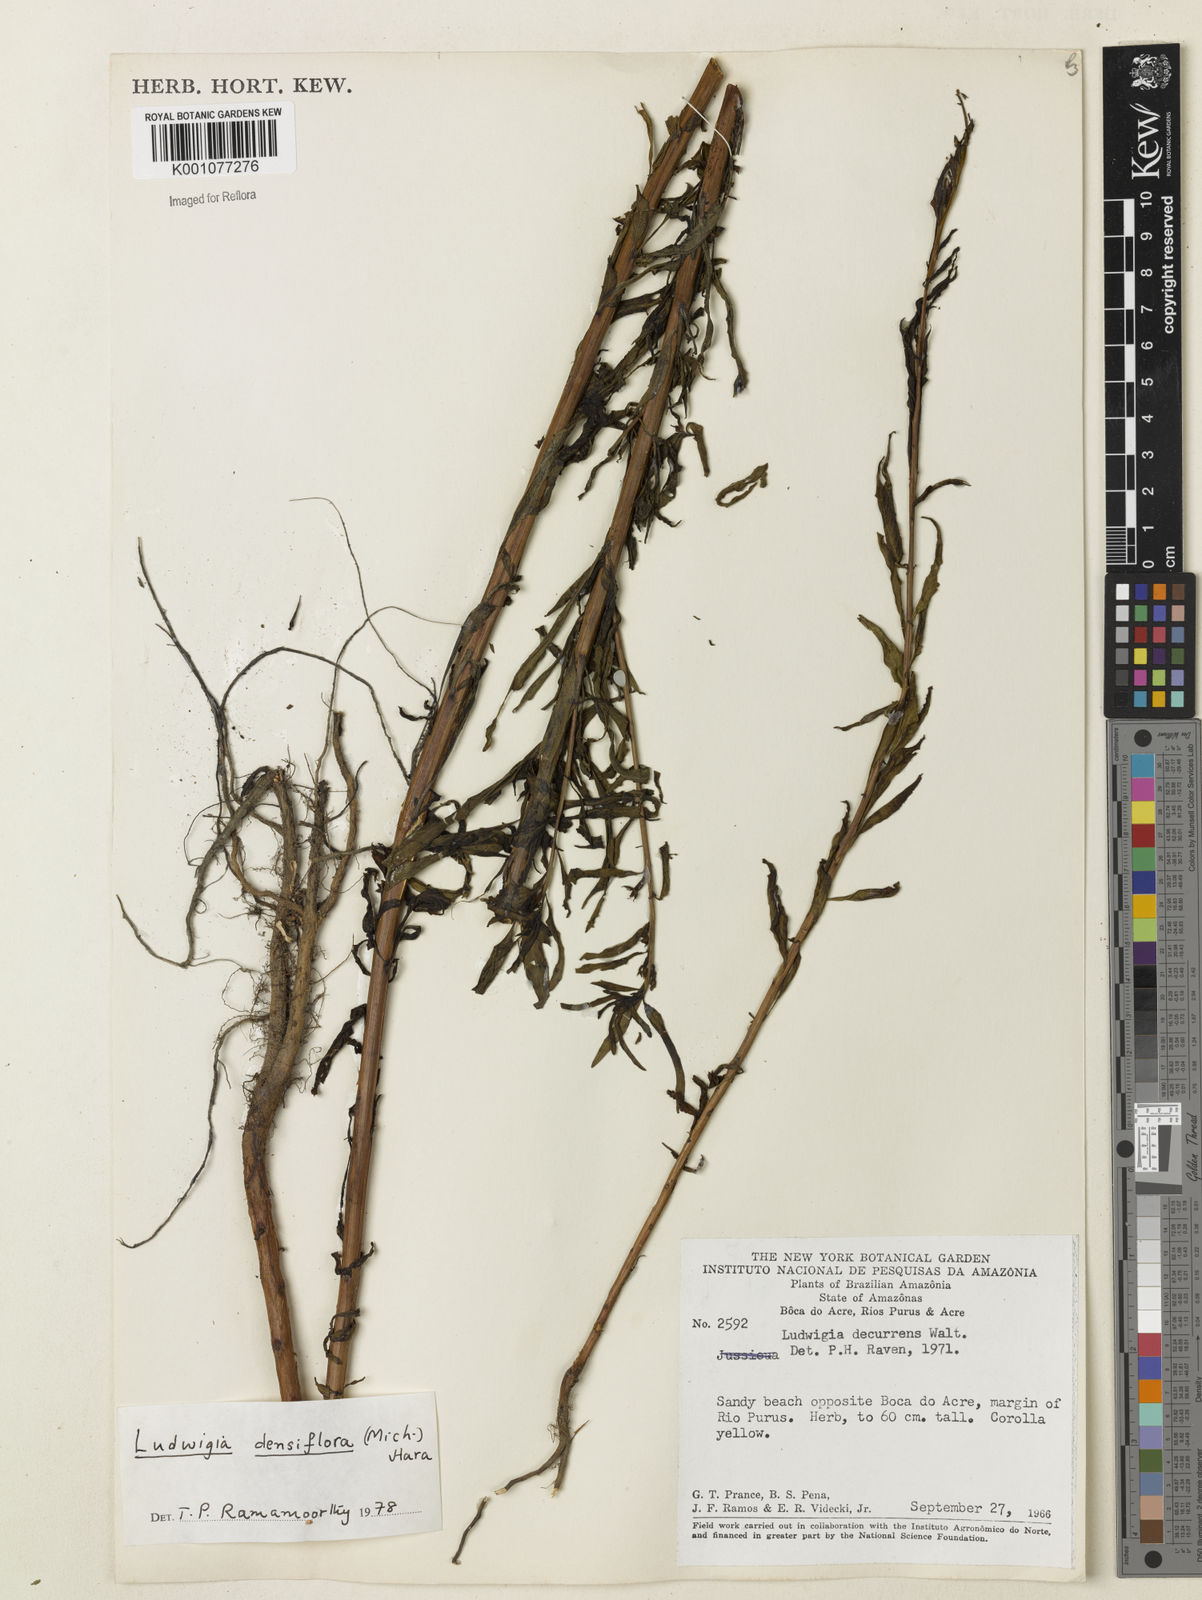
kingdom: Plantae
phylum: Tracheophyta
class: Magnoliopsida
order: Myrtales
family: Onagraceae
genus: Ludwigia
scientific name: Ludwigia densiflora
